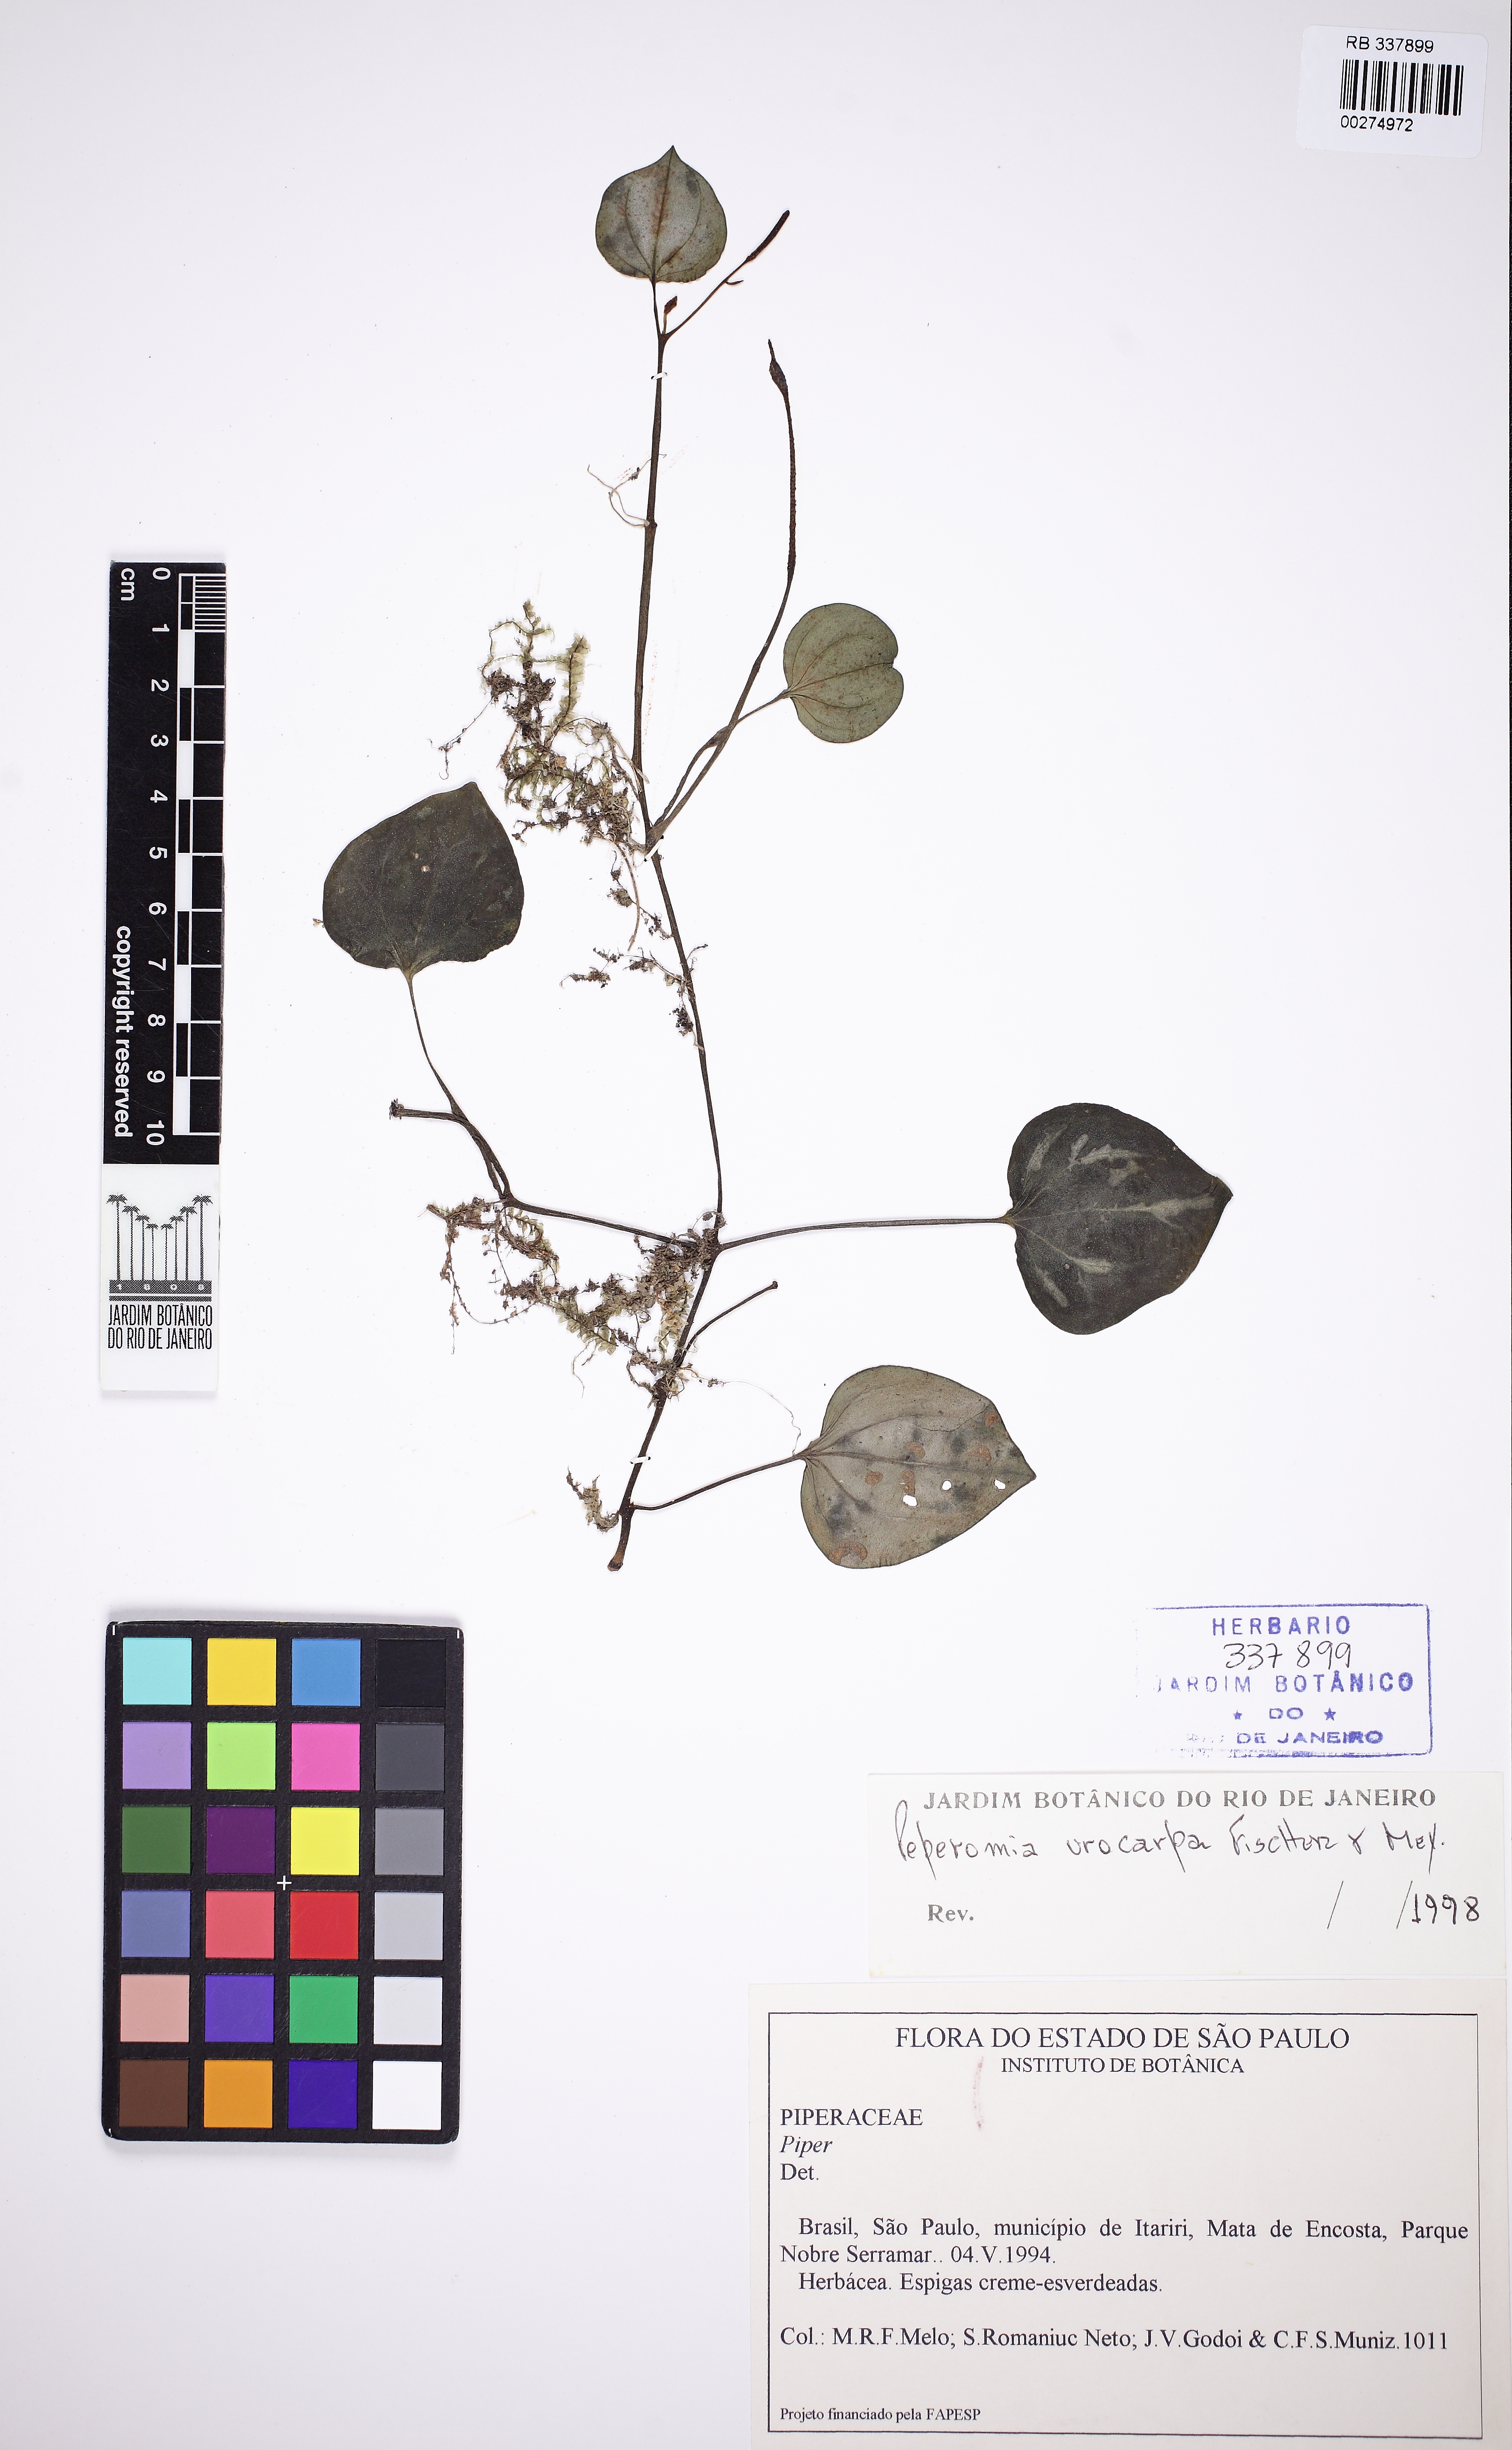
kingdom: Plantae
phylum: Tracheophyta
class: Magnoliopsida
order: Piperales
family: Piperaceae
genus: Peperomia
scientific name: Peperomia urocarpa
